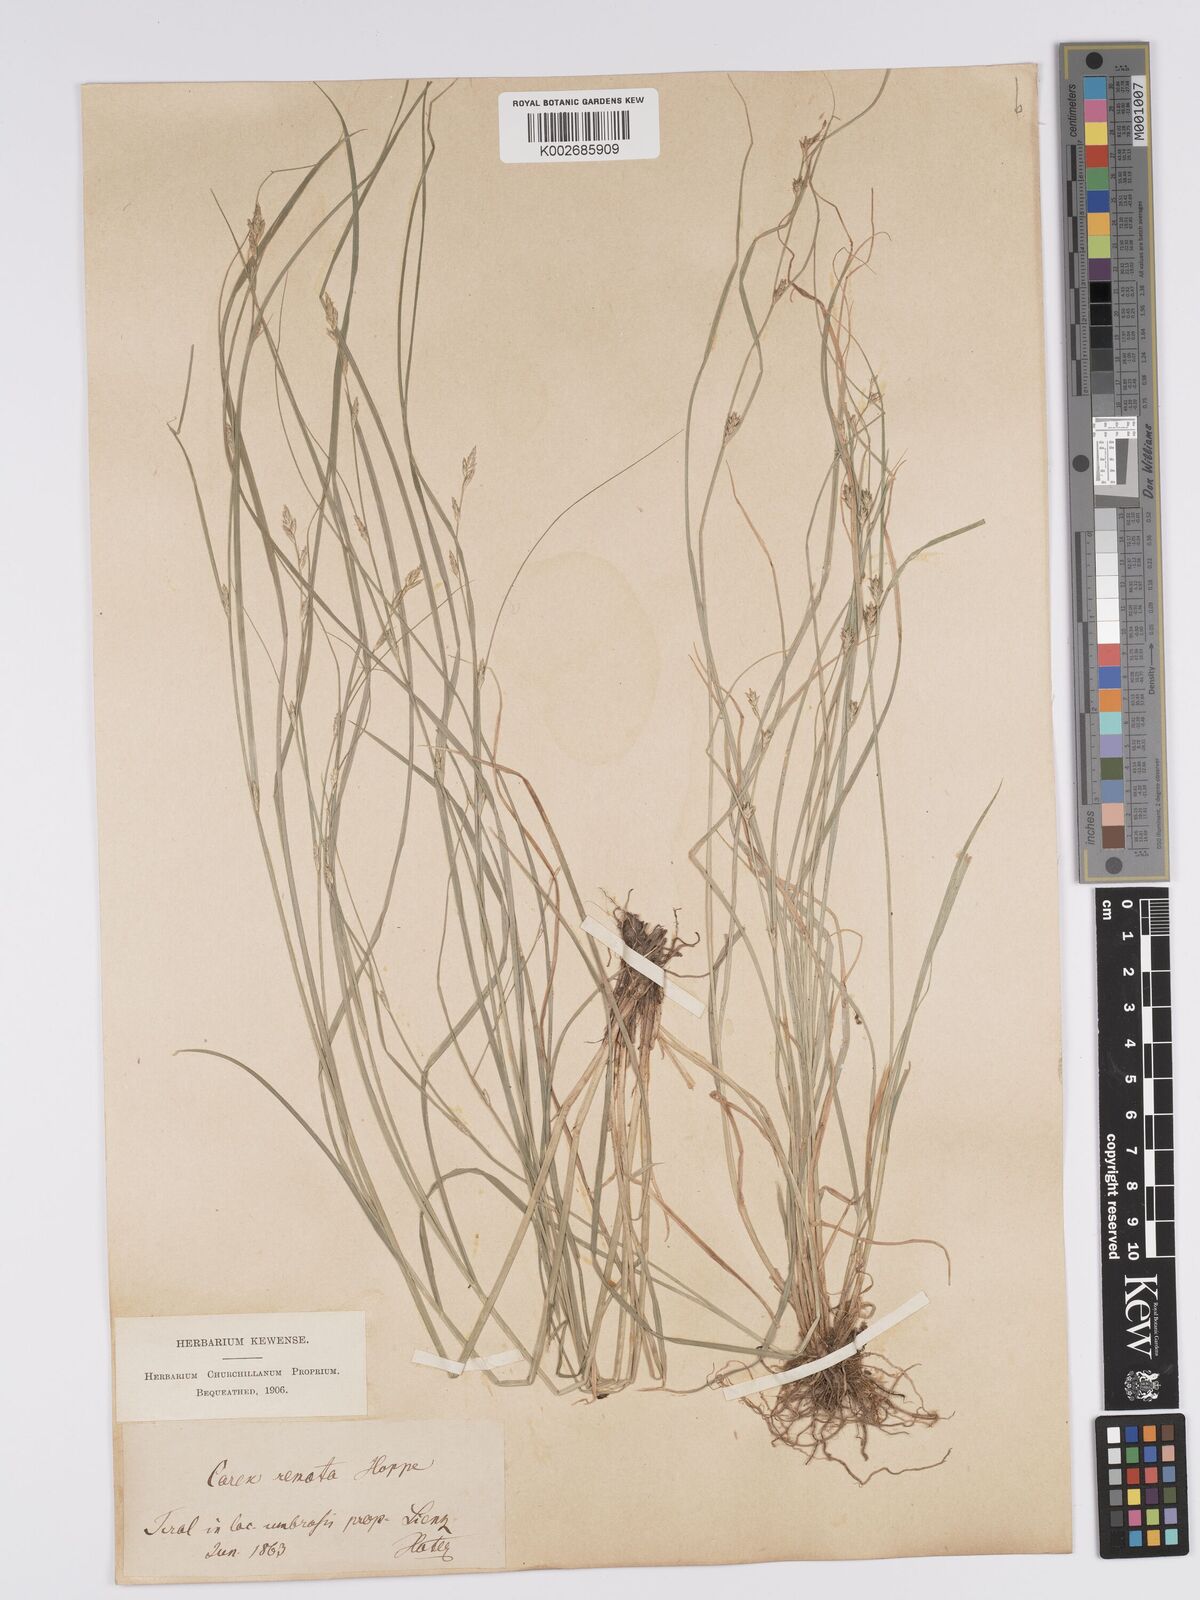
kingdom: Plantae
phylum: Tracheophyta
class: Liliopsida
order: Poales
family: Cyperaceae
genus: Carex
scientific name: Carex remota
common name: Remote sedge
